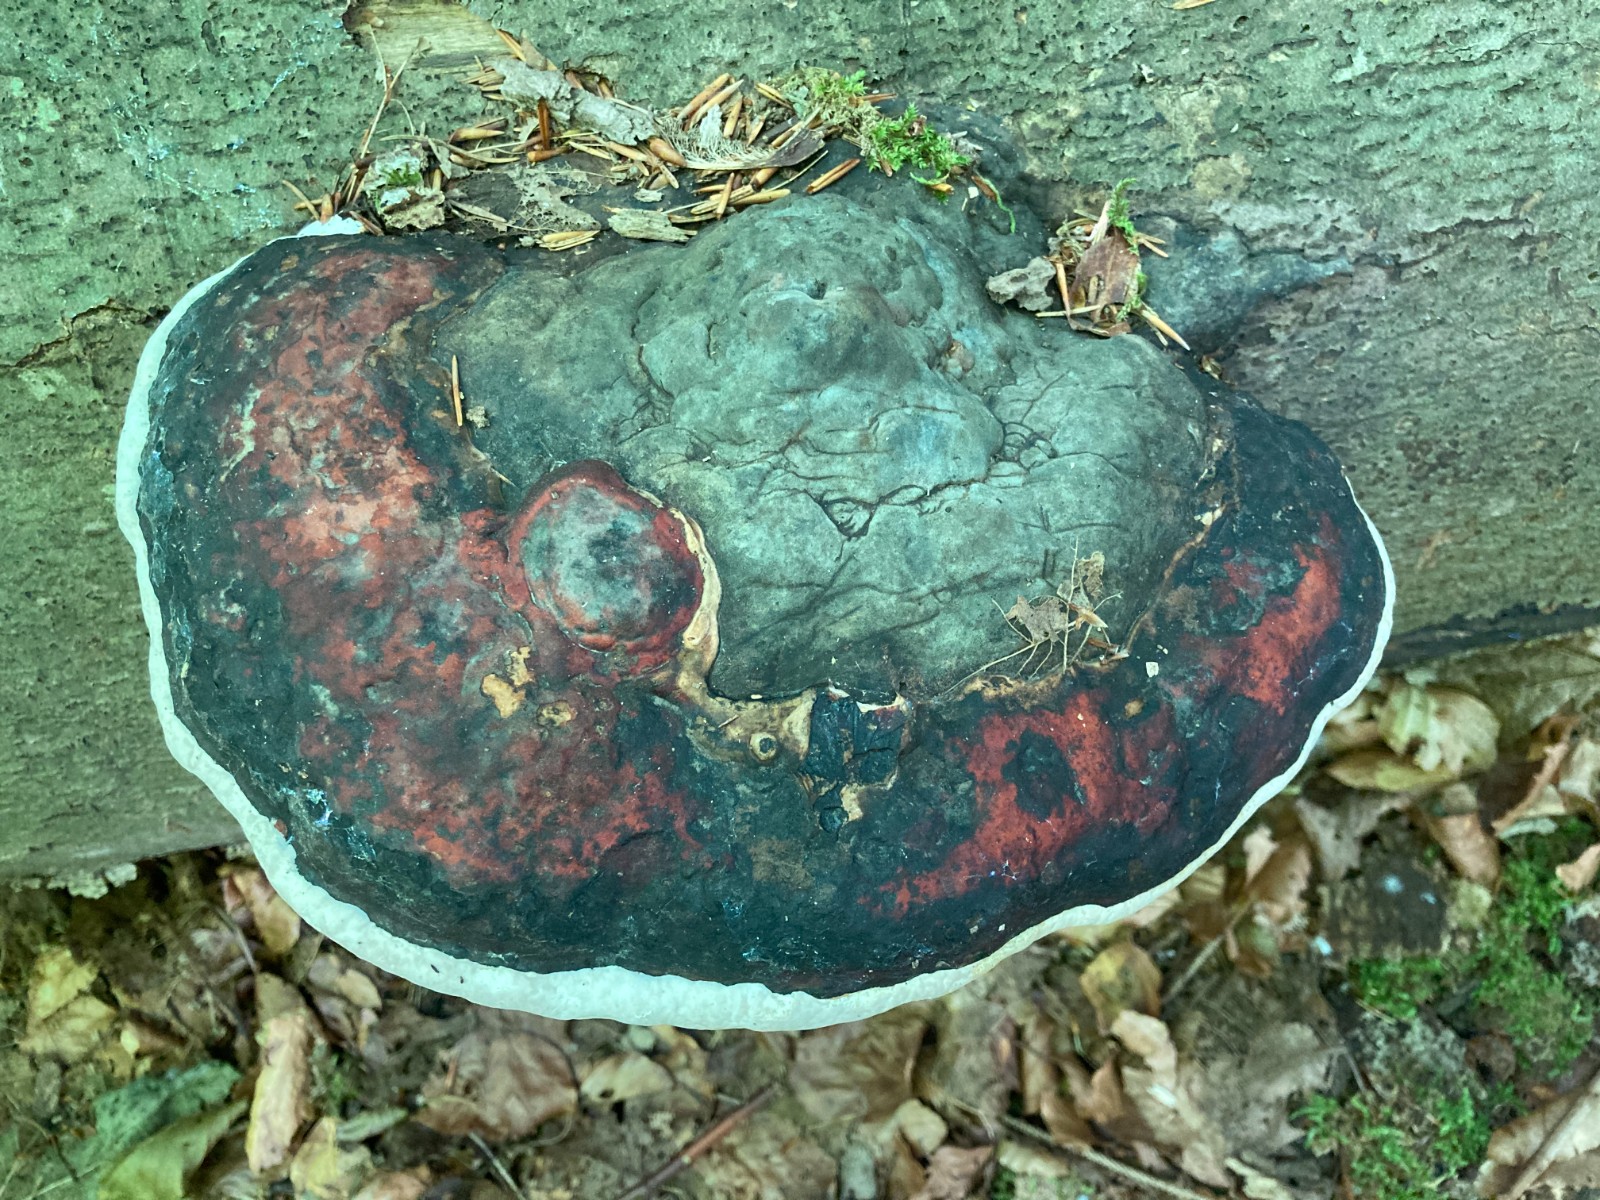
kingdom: Fungi
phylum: Basidiomycota
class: Agaricomycetes
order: Polyporales
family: Fomitopsidaceae
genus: Fomitopsis
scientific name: Fomitopsis pinicola
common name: randbæltet hovporesvamp
